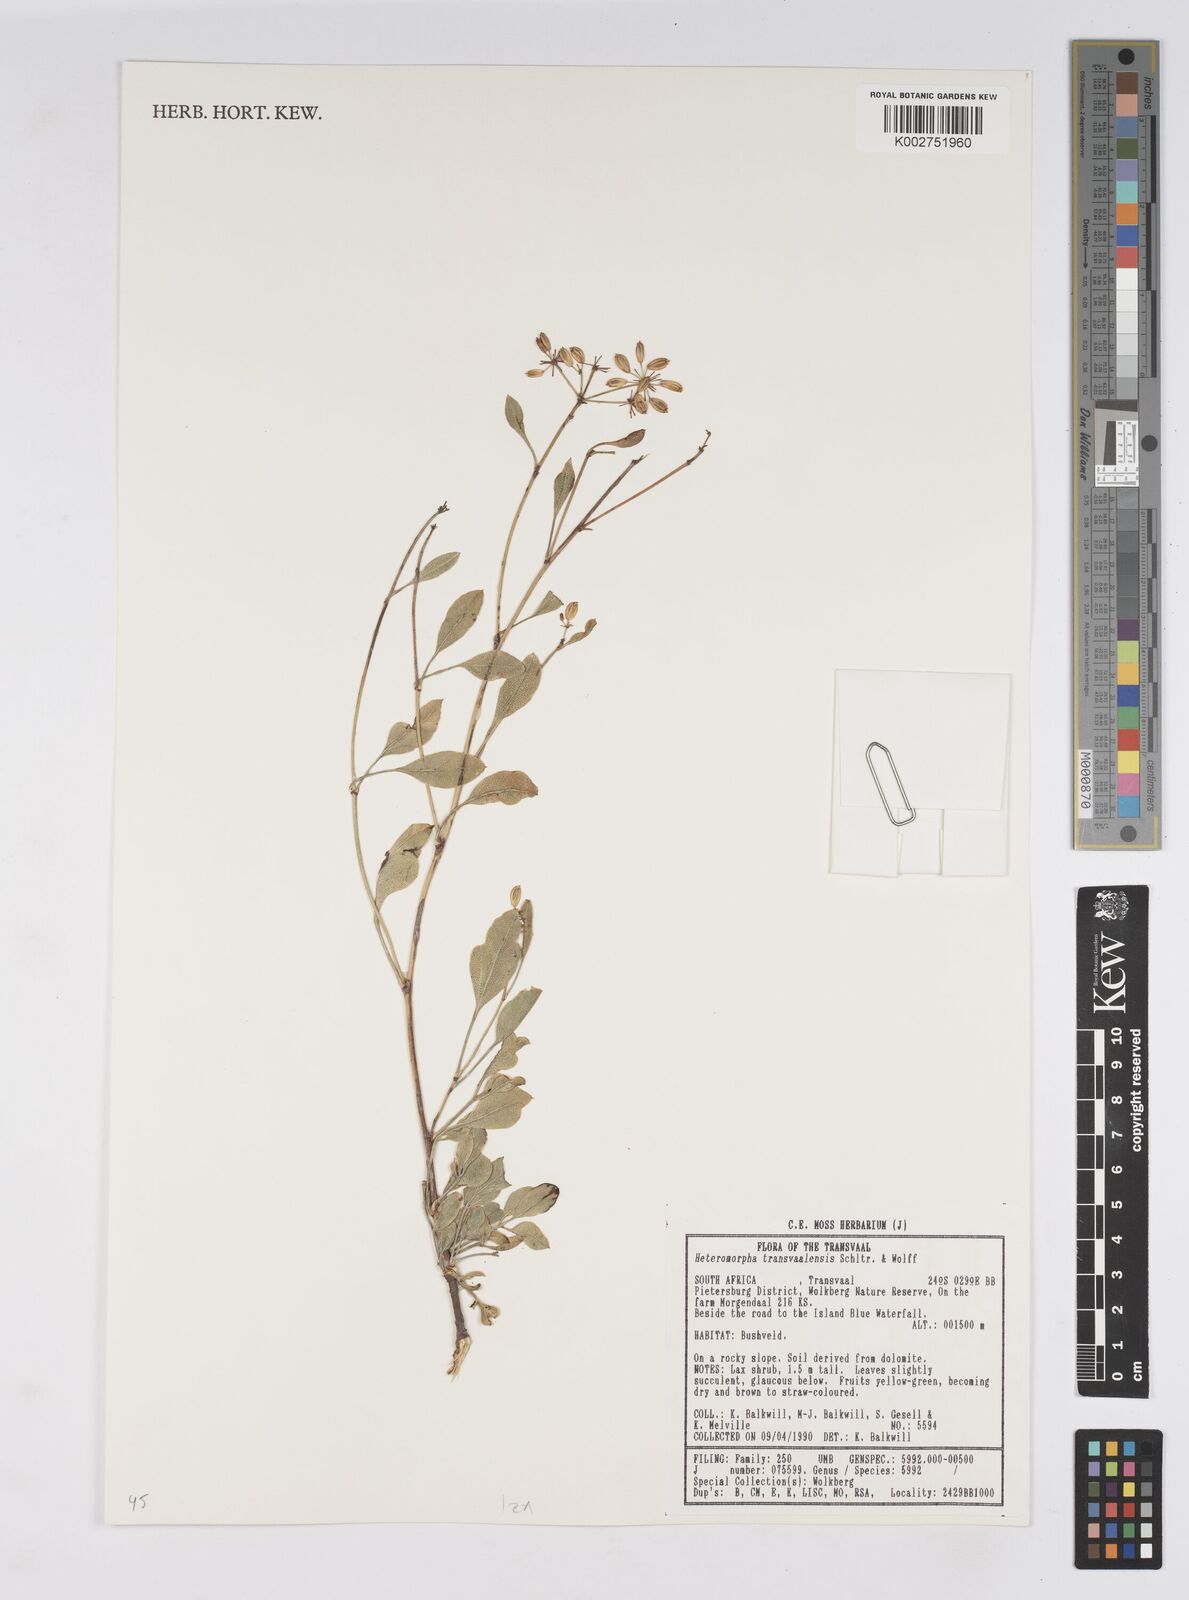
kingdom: Plantae
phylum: Tracheophyta
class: Magnoliopsida
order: Apiales
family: Apiaceae
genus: Heteromorpha
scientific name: Heteromorpha stenophylla
